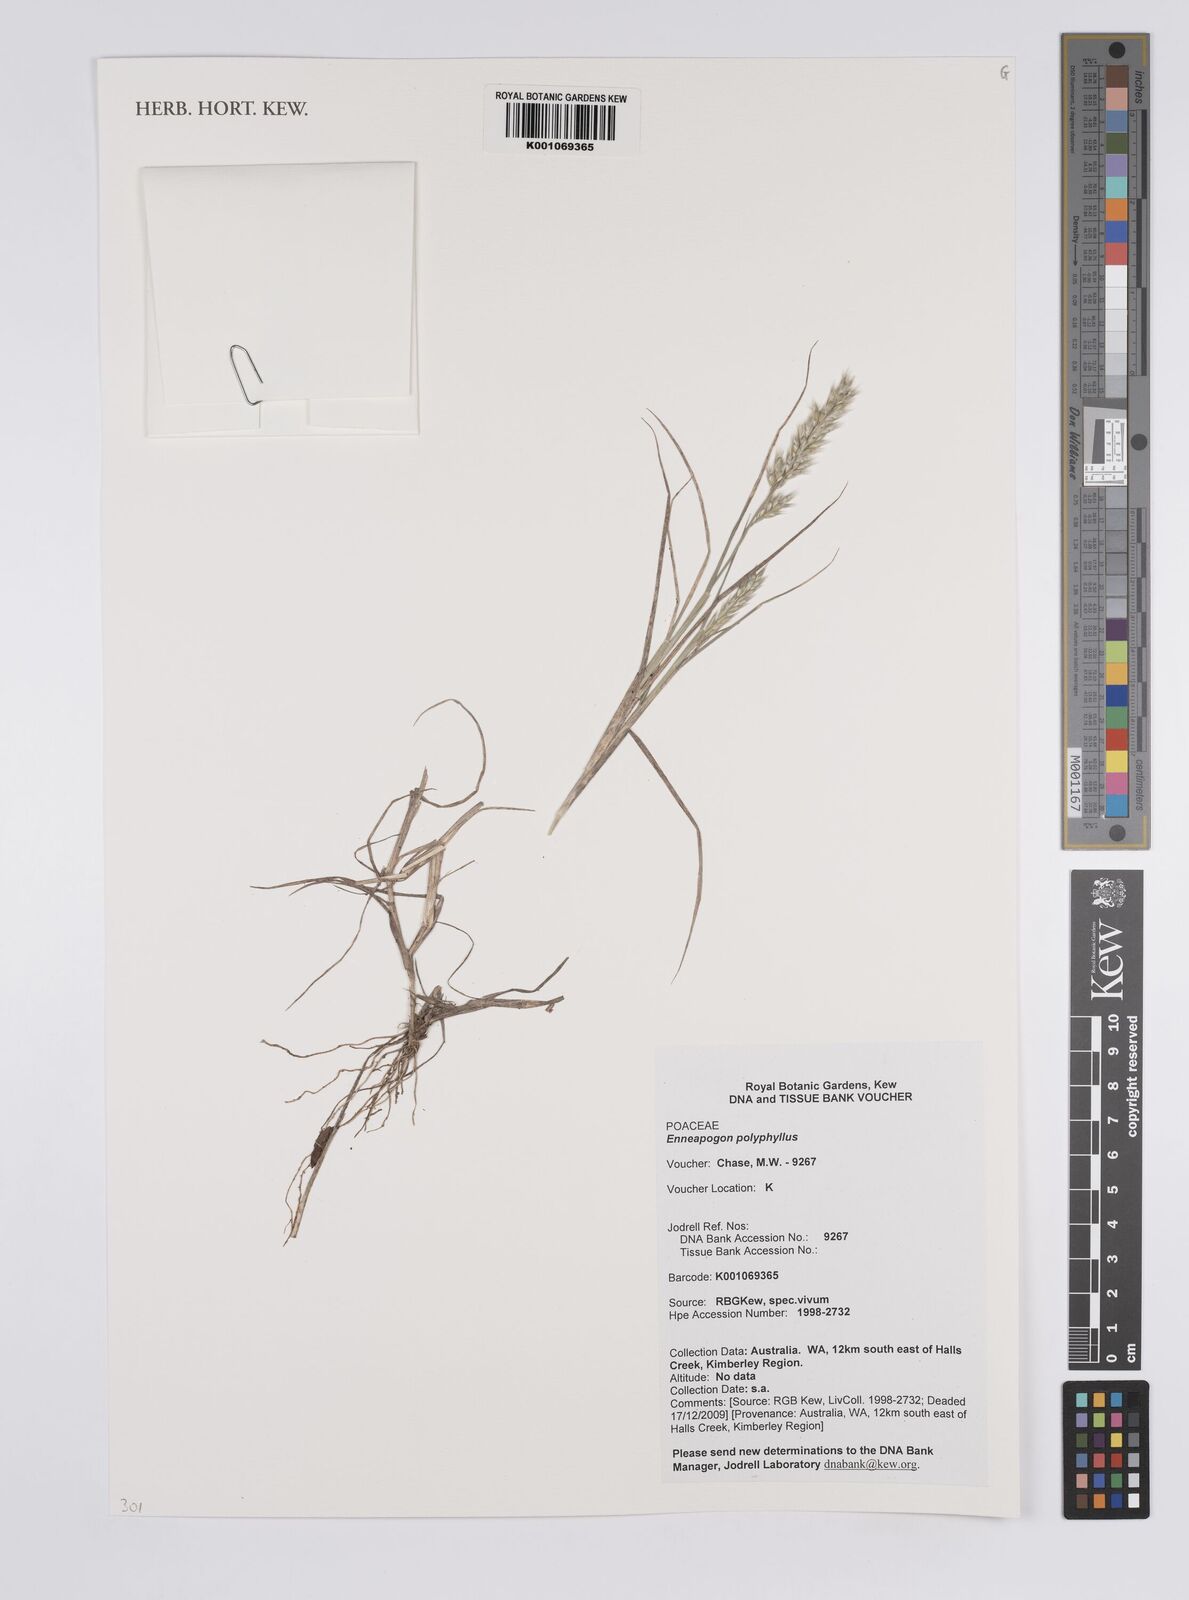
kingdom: Plantae
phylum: Tracheophyta
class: Liliopsida
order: Poales
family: Poaceae
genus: Enneapogon
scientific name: Enneapogon polyphyllus
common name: Leafy nineawn
